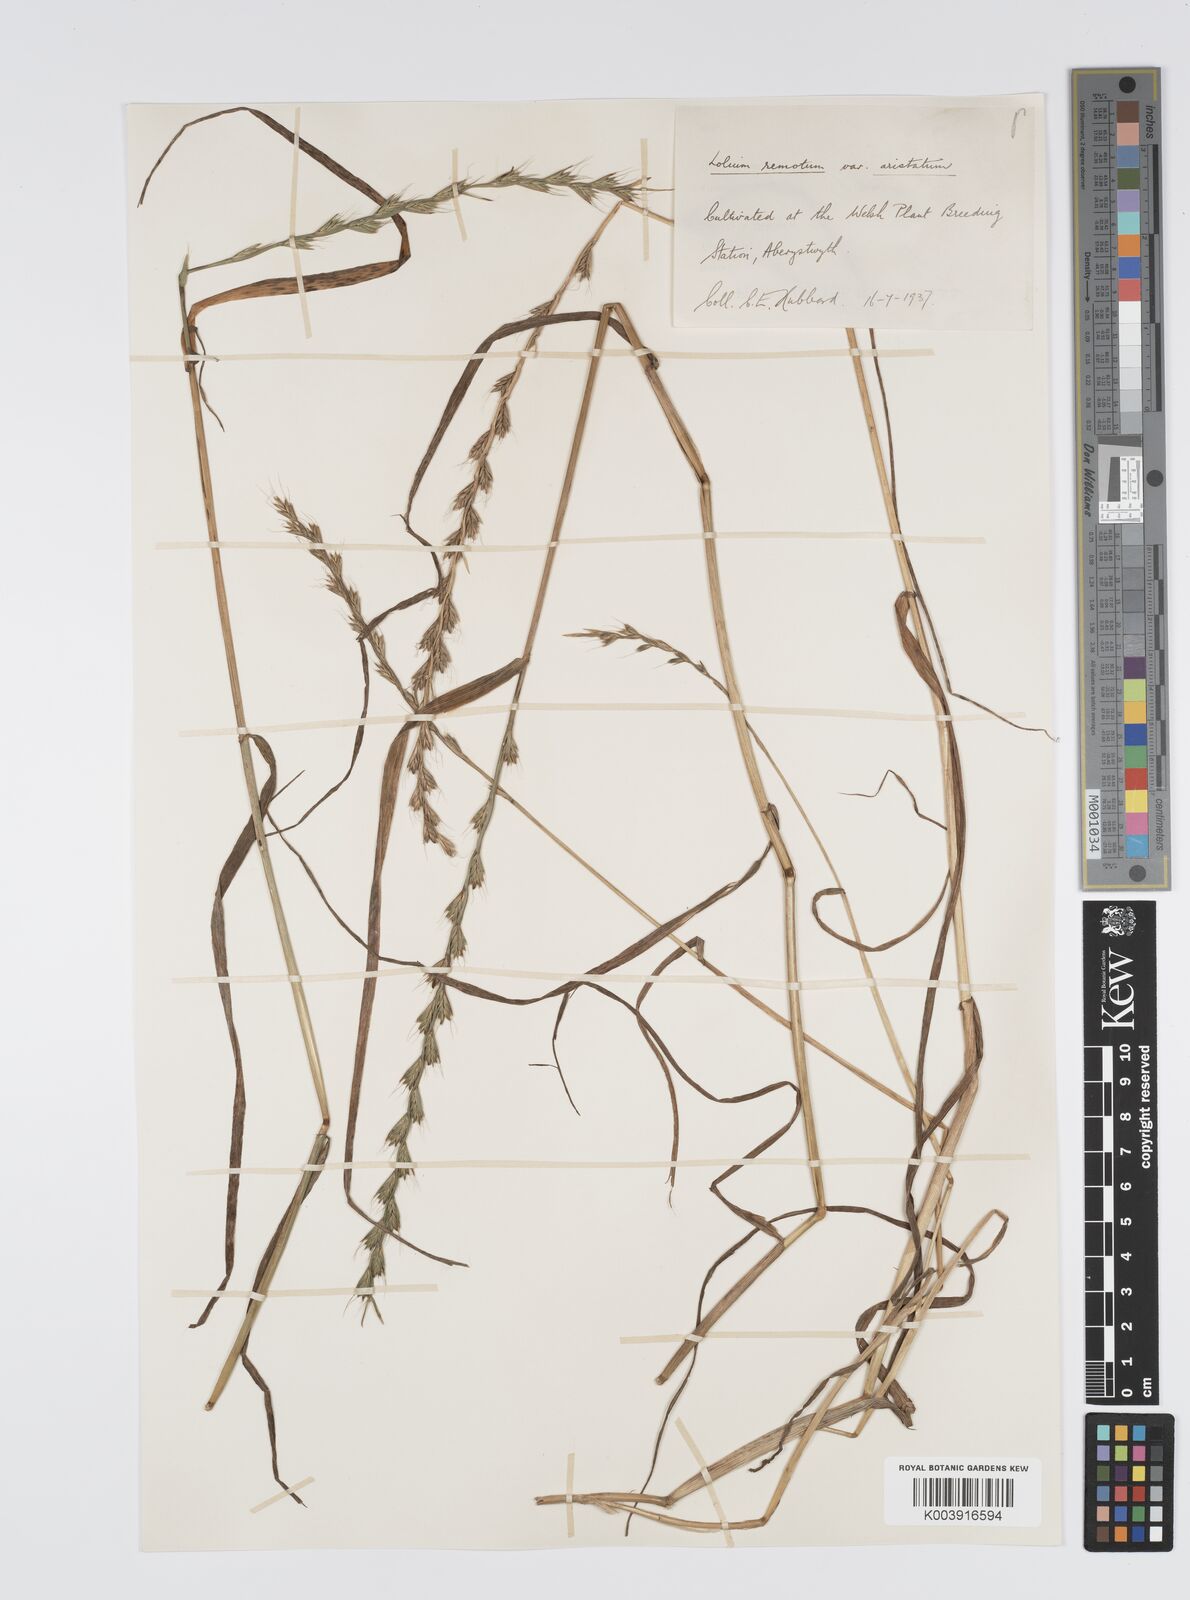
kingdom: Plantae
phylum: Tracheophyta
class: Liliopsida
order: Poales
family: Poaceae
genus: Lolium
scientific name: Lolium remotum
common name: Flaxfield rye-grass
